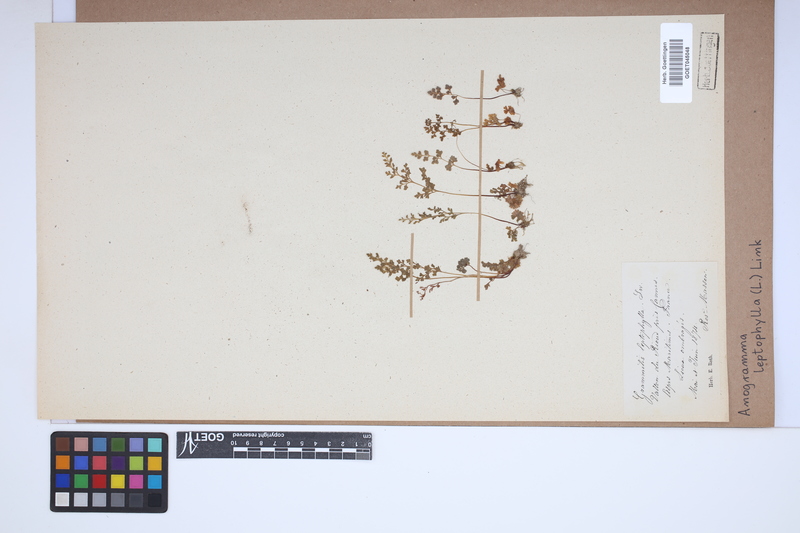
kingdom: Plantae
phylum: Tracheophyta
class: Polypodiopsida
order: Polypodiales
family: Pteridaceae
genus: Anogramma
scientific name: Anogramma leptophylla
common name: Jersey fern
